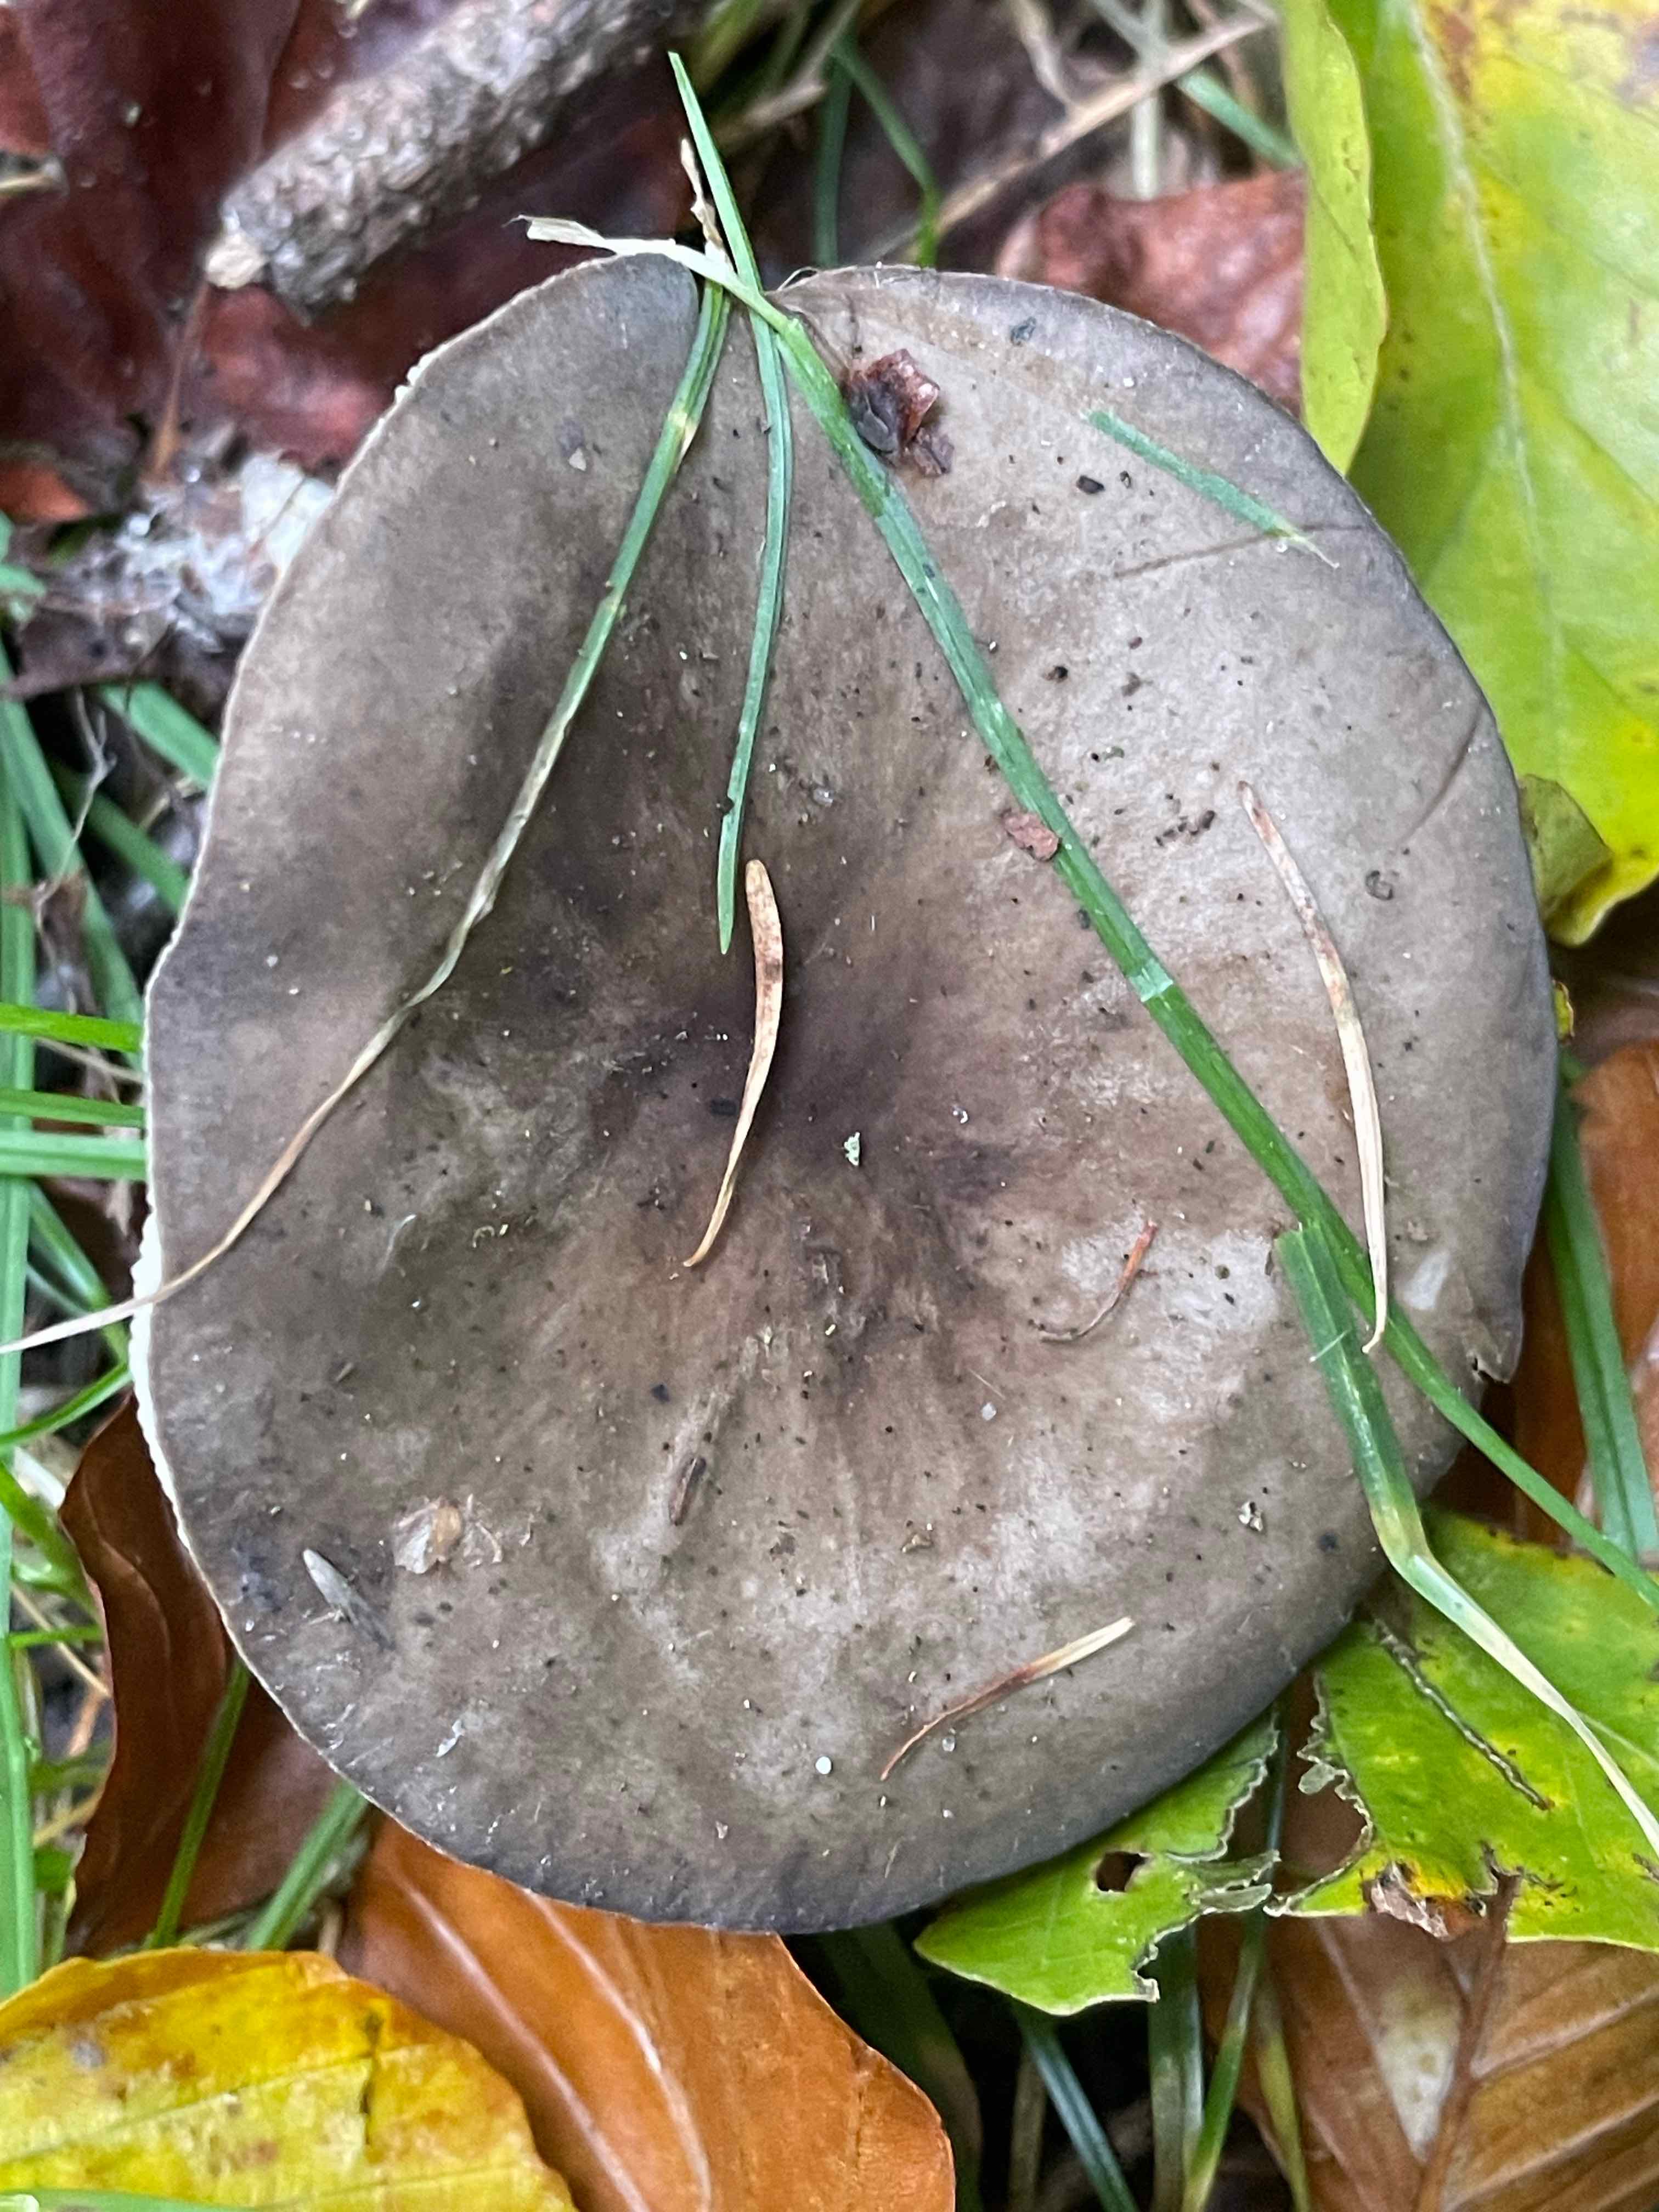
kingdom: Fungi
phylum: Basidiomycota
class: Agaricomycetes
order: Agaricales
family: Tricholomataceae
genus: Melanoleuca
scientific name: Melanoleuca
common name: munkehat
